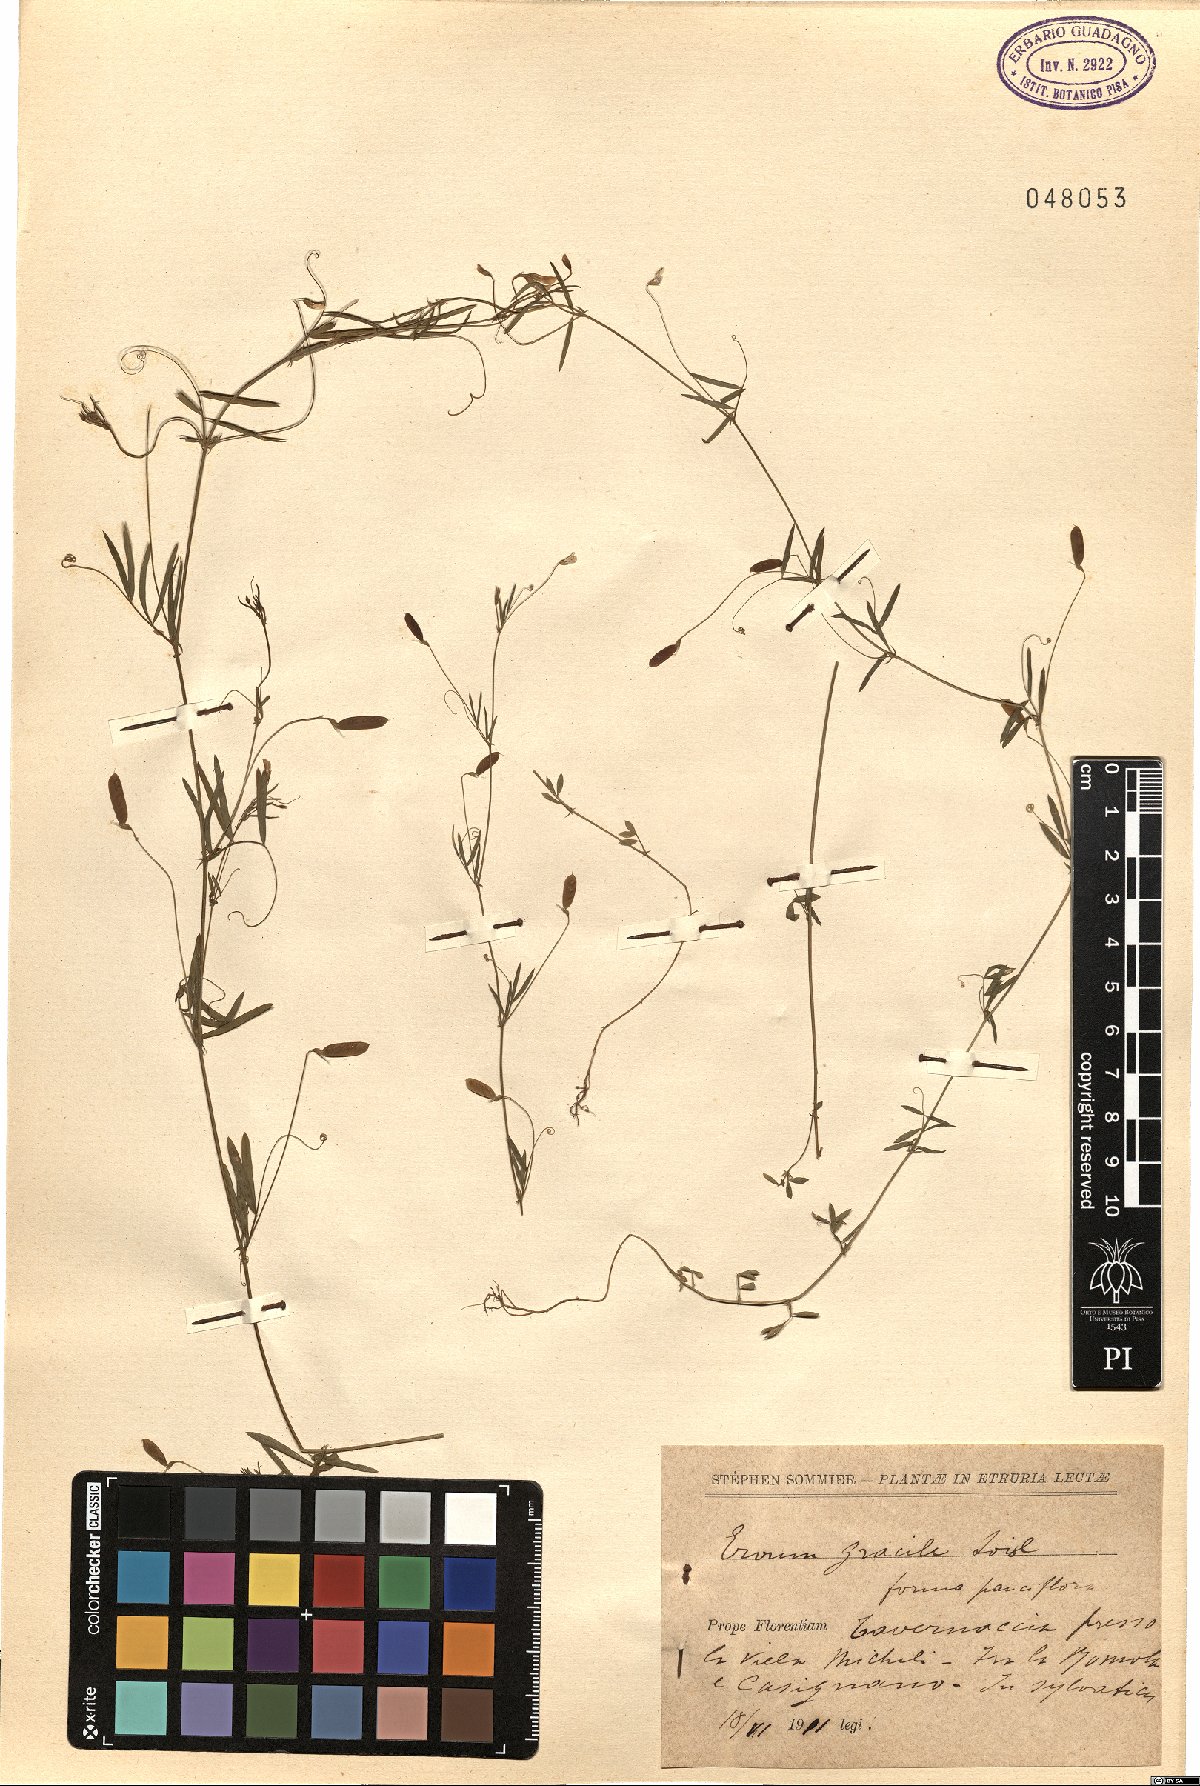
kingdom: Plantae
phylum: Tracheophyta
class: Magnoliopsida
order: Fabales
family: Fabaceae
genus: Vicia
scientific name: Vicia parviflora
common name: Slender tare
